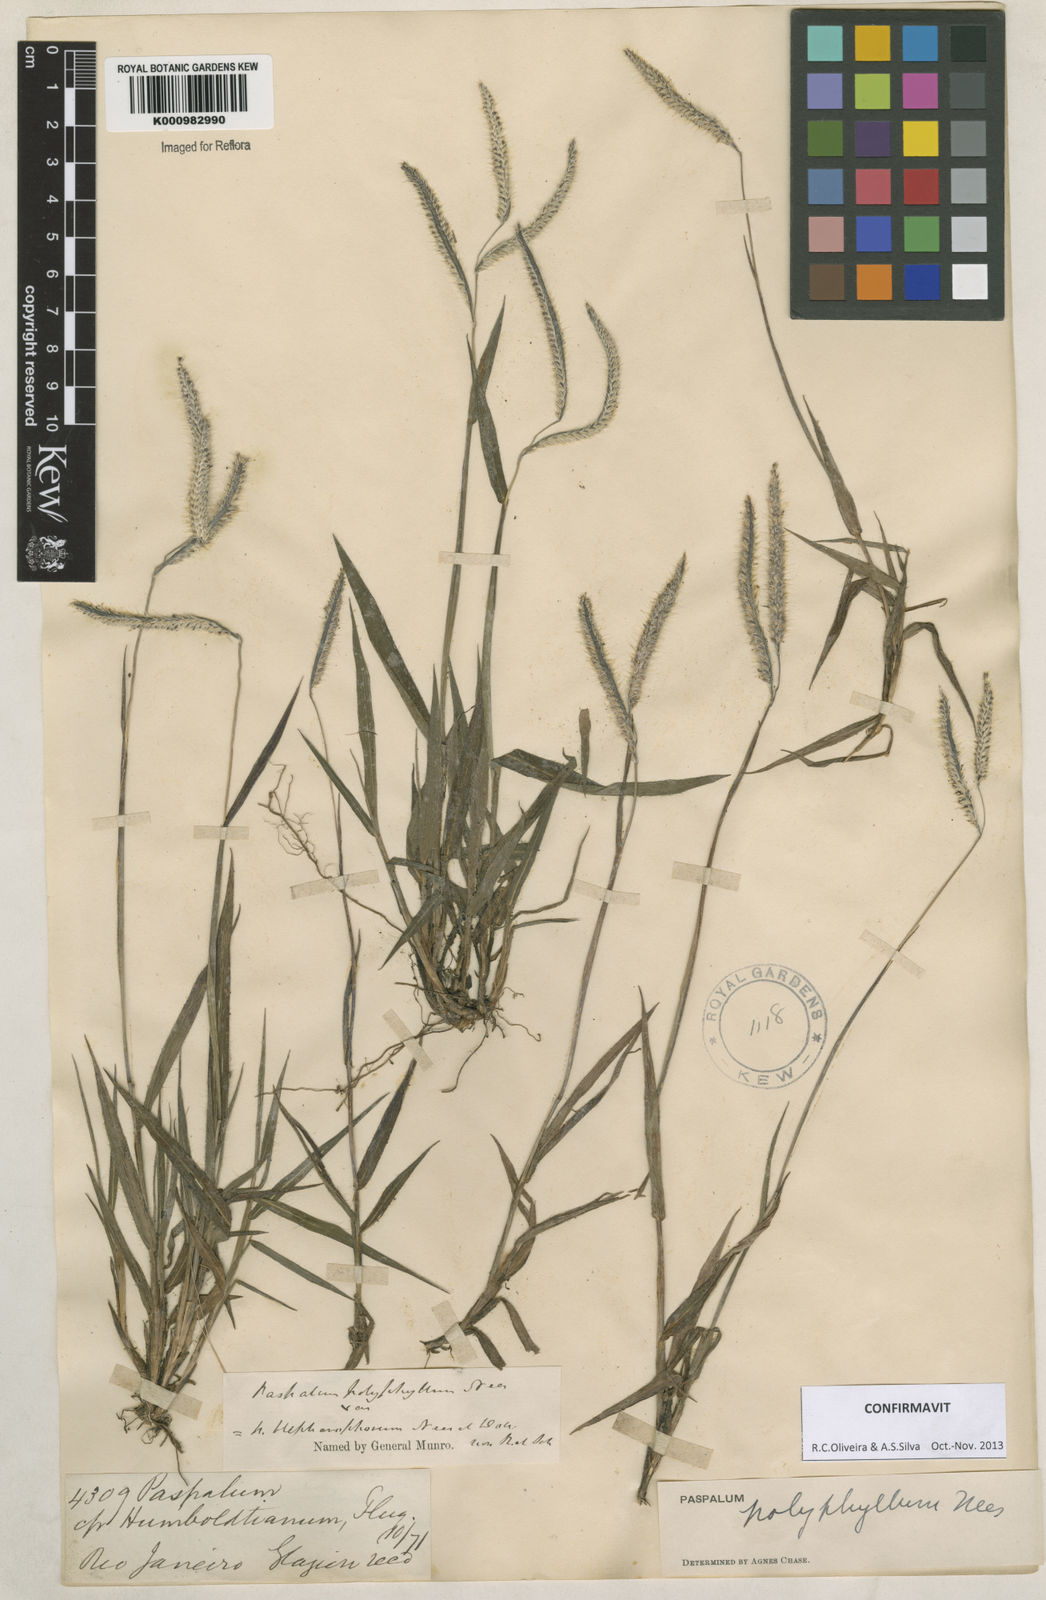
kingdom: Plantae
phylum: Tracheophyta
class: Liliopsida
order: Poales
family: Poaceae
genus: Paspalum
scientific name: Paspalum
